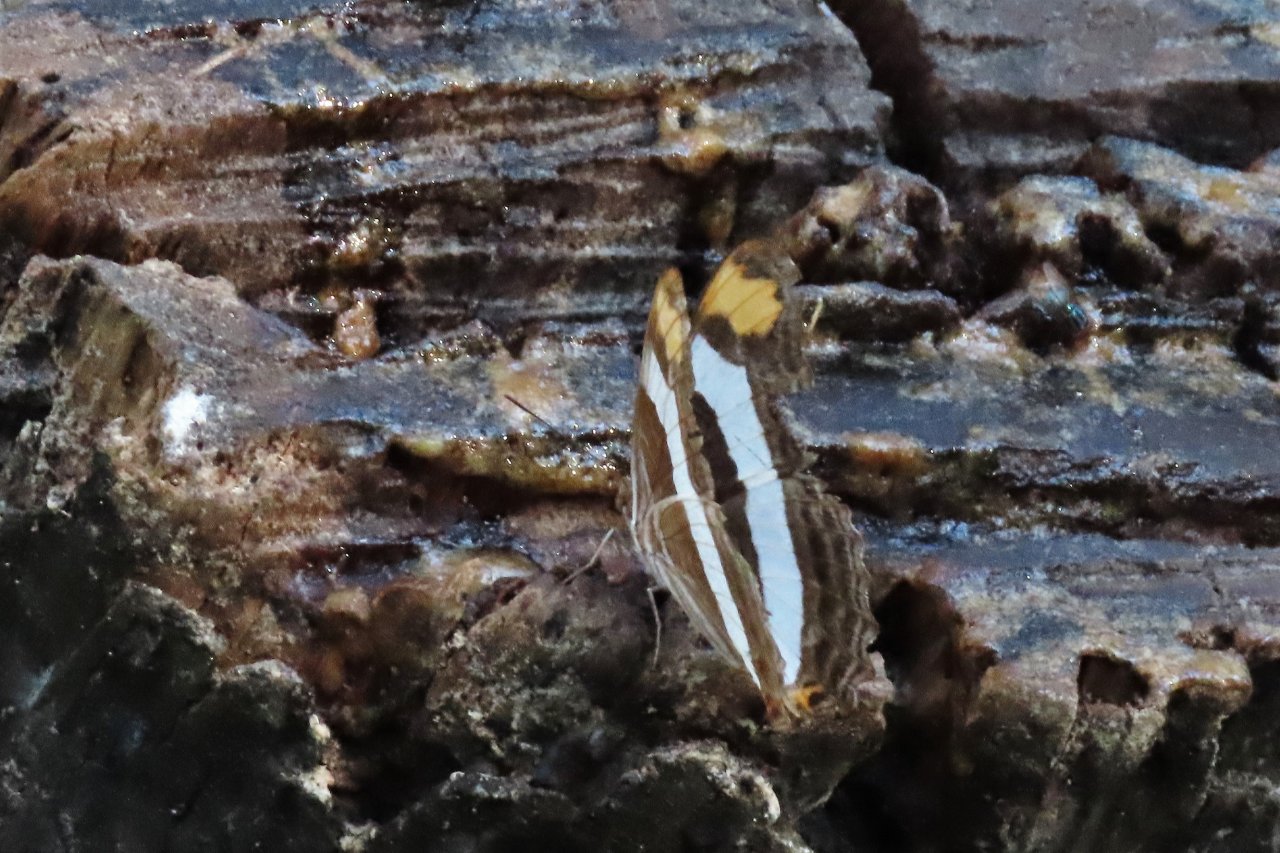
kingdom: Animalia
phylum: Arthropoda
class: Insecta
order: Lepidoptera
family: Nymphalidae
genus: Limenitis
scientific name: Limenitis fessonia
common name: Band-celled Sister
